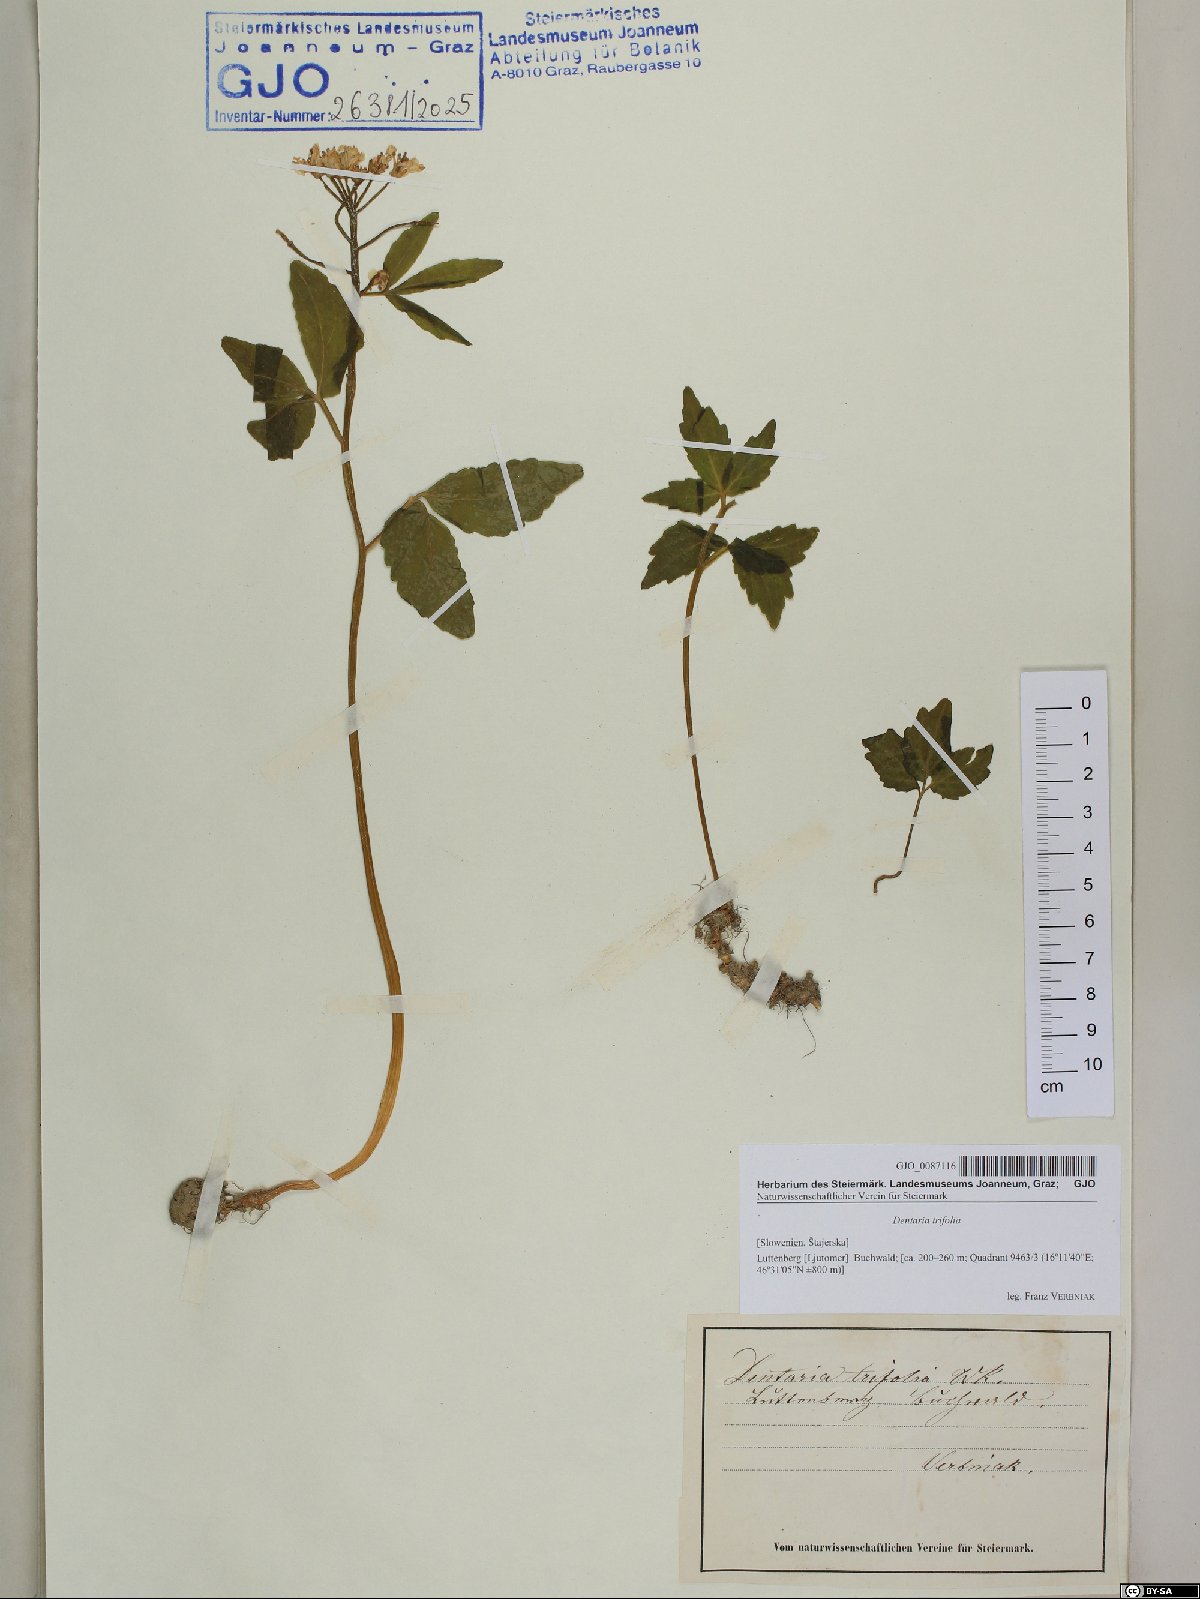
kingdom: Plantae
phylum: Tracheophyta
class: Magnoliopsida
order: Brassicales
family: Brassicaceae
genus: Cardamine
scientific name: Cardamine waldsteinii
